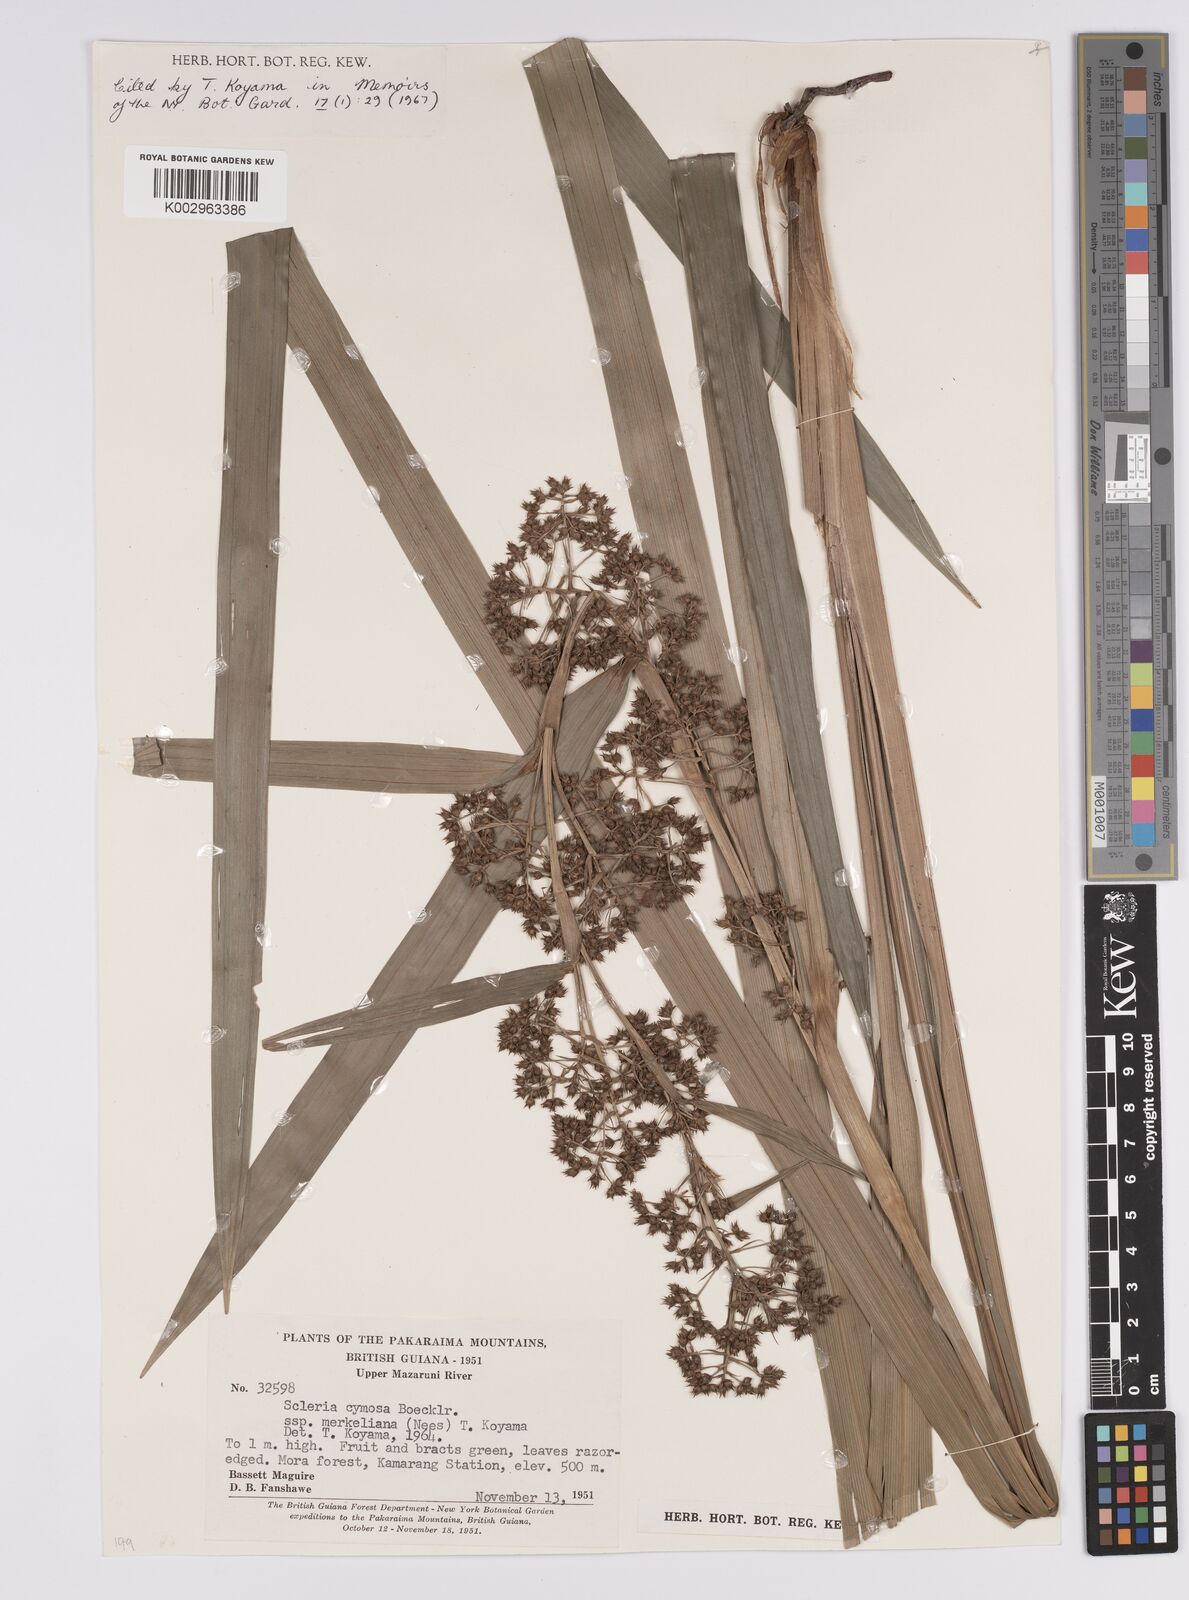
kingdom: Plantae
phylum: Tracheophyta
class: Liliopsida
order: Poales
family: Cyperaceae
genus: Becquerelia
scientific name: Becquerelia merkeliana
